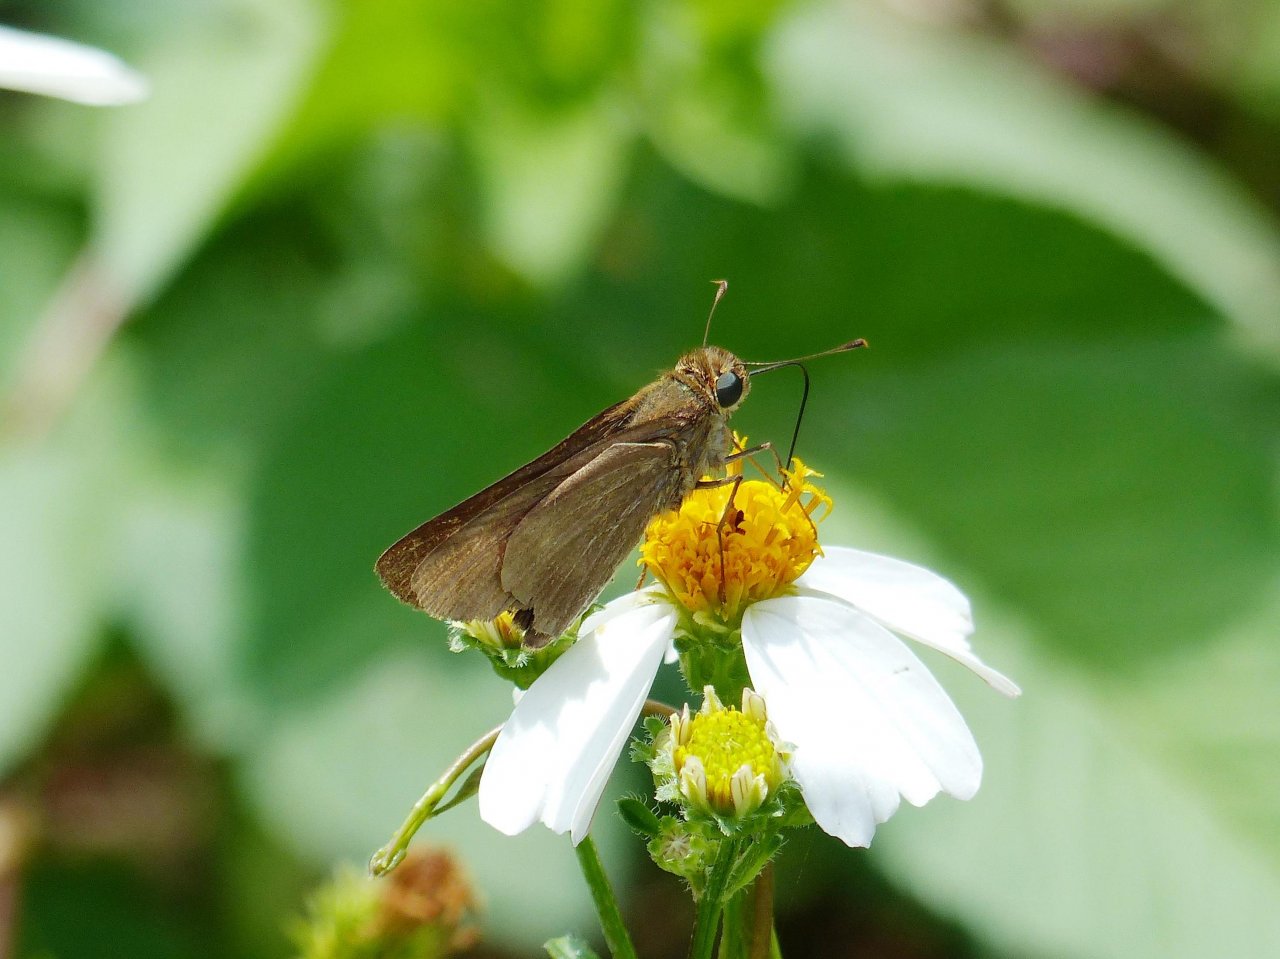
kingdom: Animalia
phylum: Arthropoda
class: Insecta
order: Lepidoptera
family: Hesperiidae
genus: Panoquina
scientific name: Panoquina ocola
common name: Ocola Skipper
